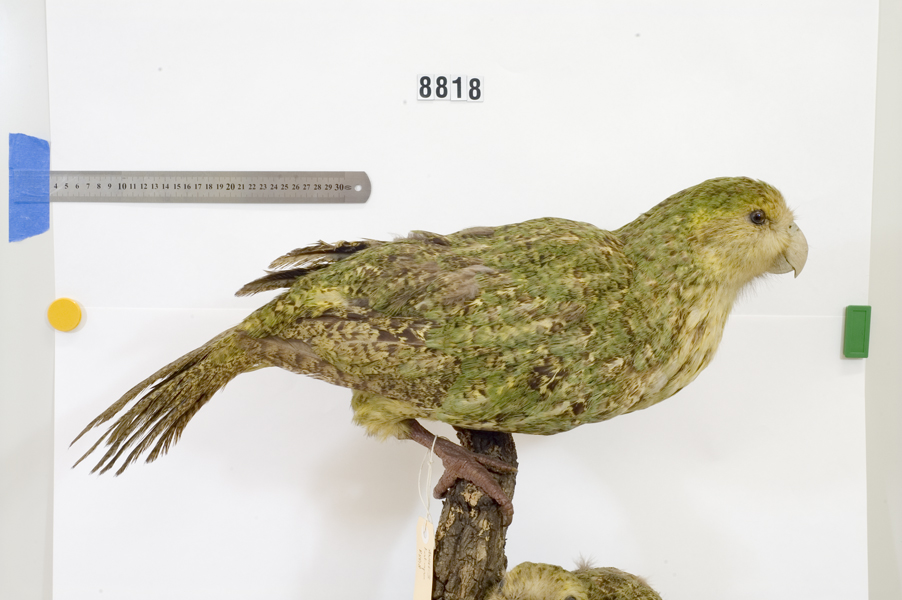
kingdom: Animalia
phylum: Chordata
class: Aves
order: Psittaciformes
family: Psittacidae
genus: Strigops
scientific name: Strigops habroptila
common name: Kakapo
